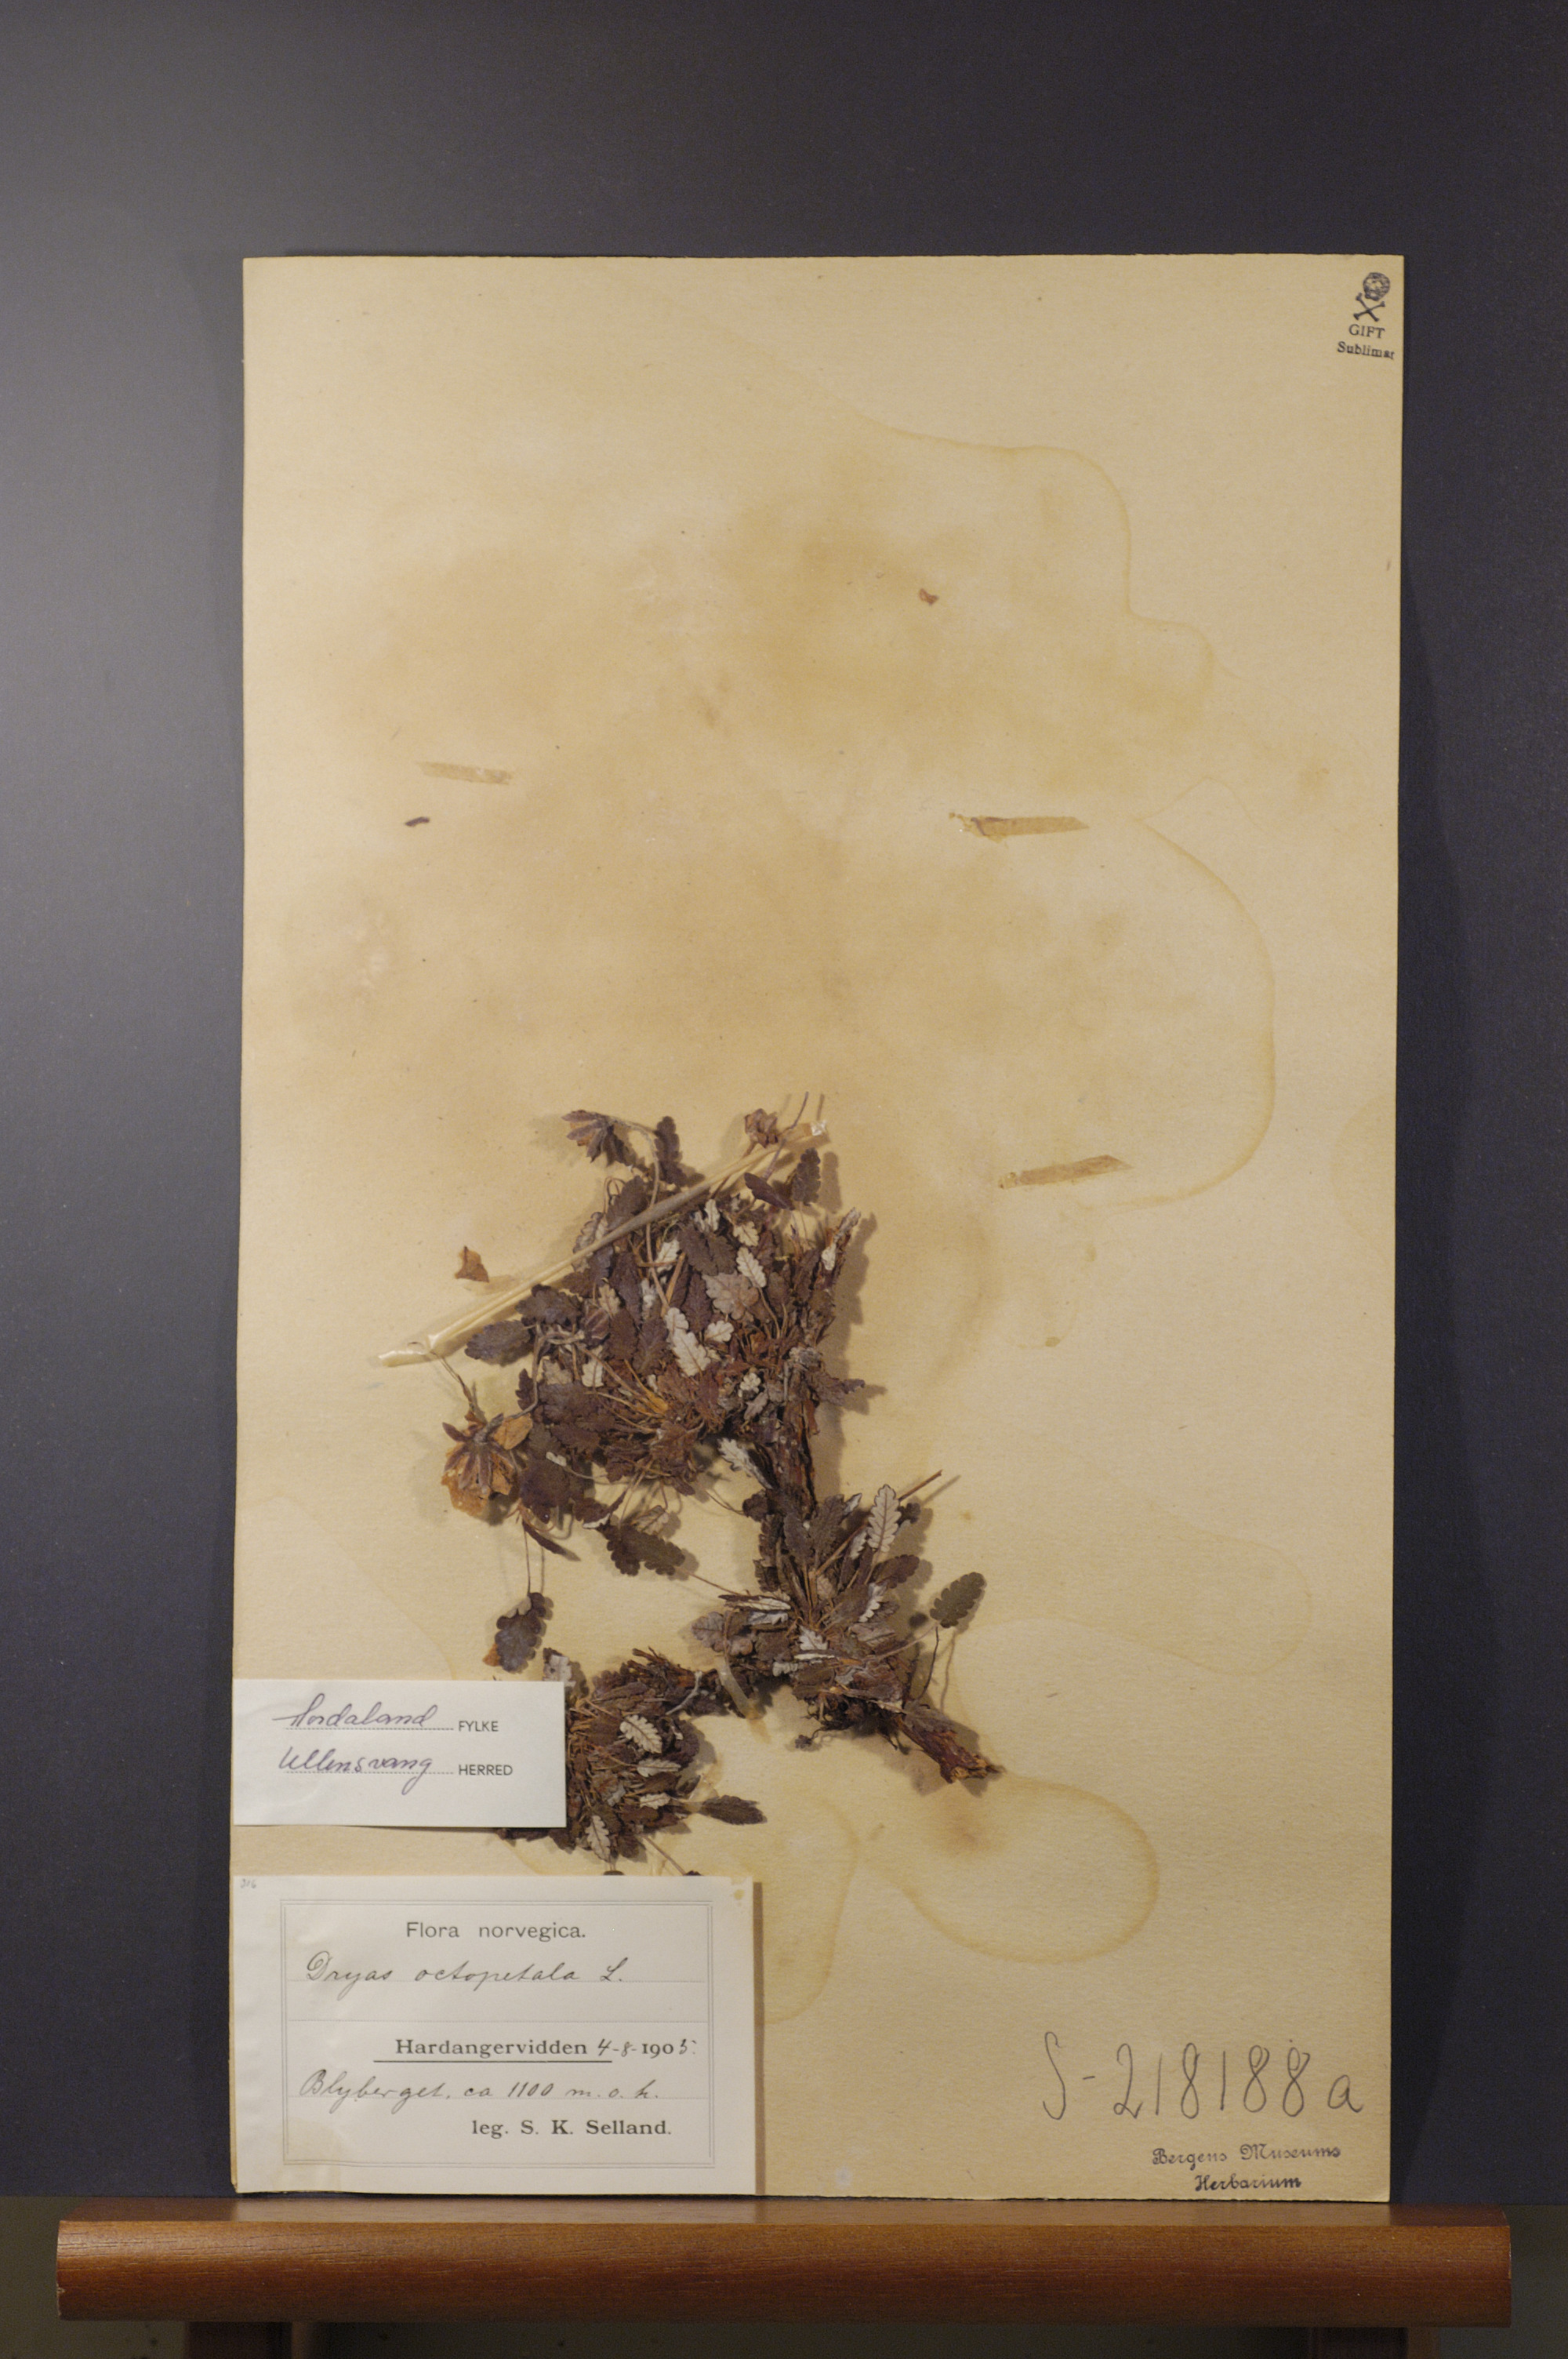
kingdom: Plantae
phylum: Tracheophyta
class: Magnoliopsida
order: Rosales
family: Rosaceae
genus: Dryas
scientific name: Dryas octopetala
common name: Eight-petal mountain-avens
